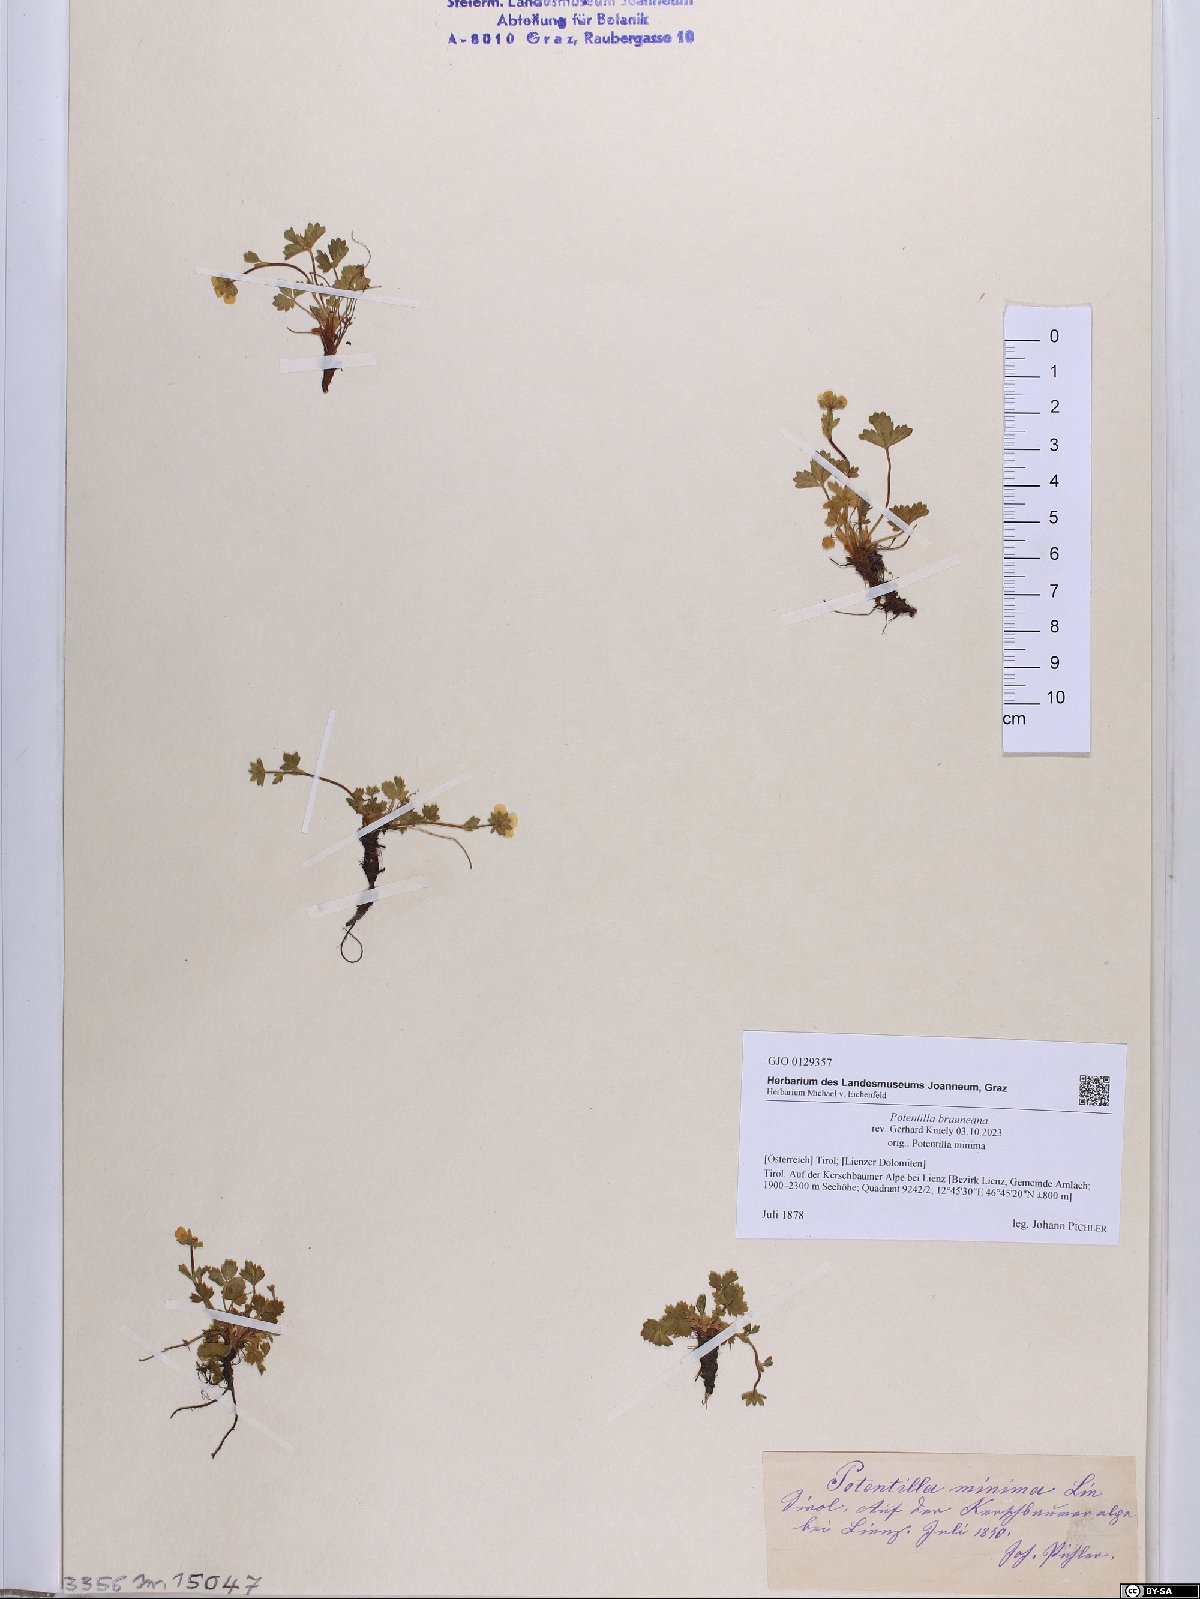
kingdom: Plantae
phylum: Tracheophyta
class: Magnoliopsida
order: Rosales
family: Rosaceae
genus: Potentilla
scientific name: Potentilla brauneana
